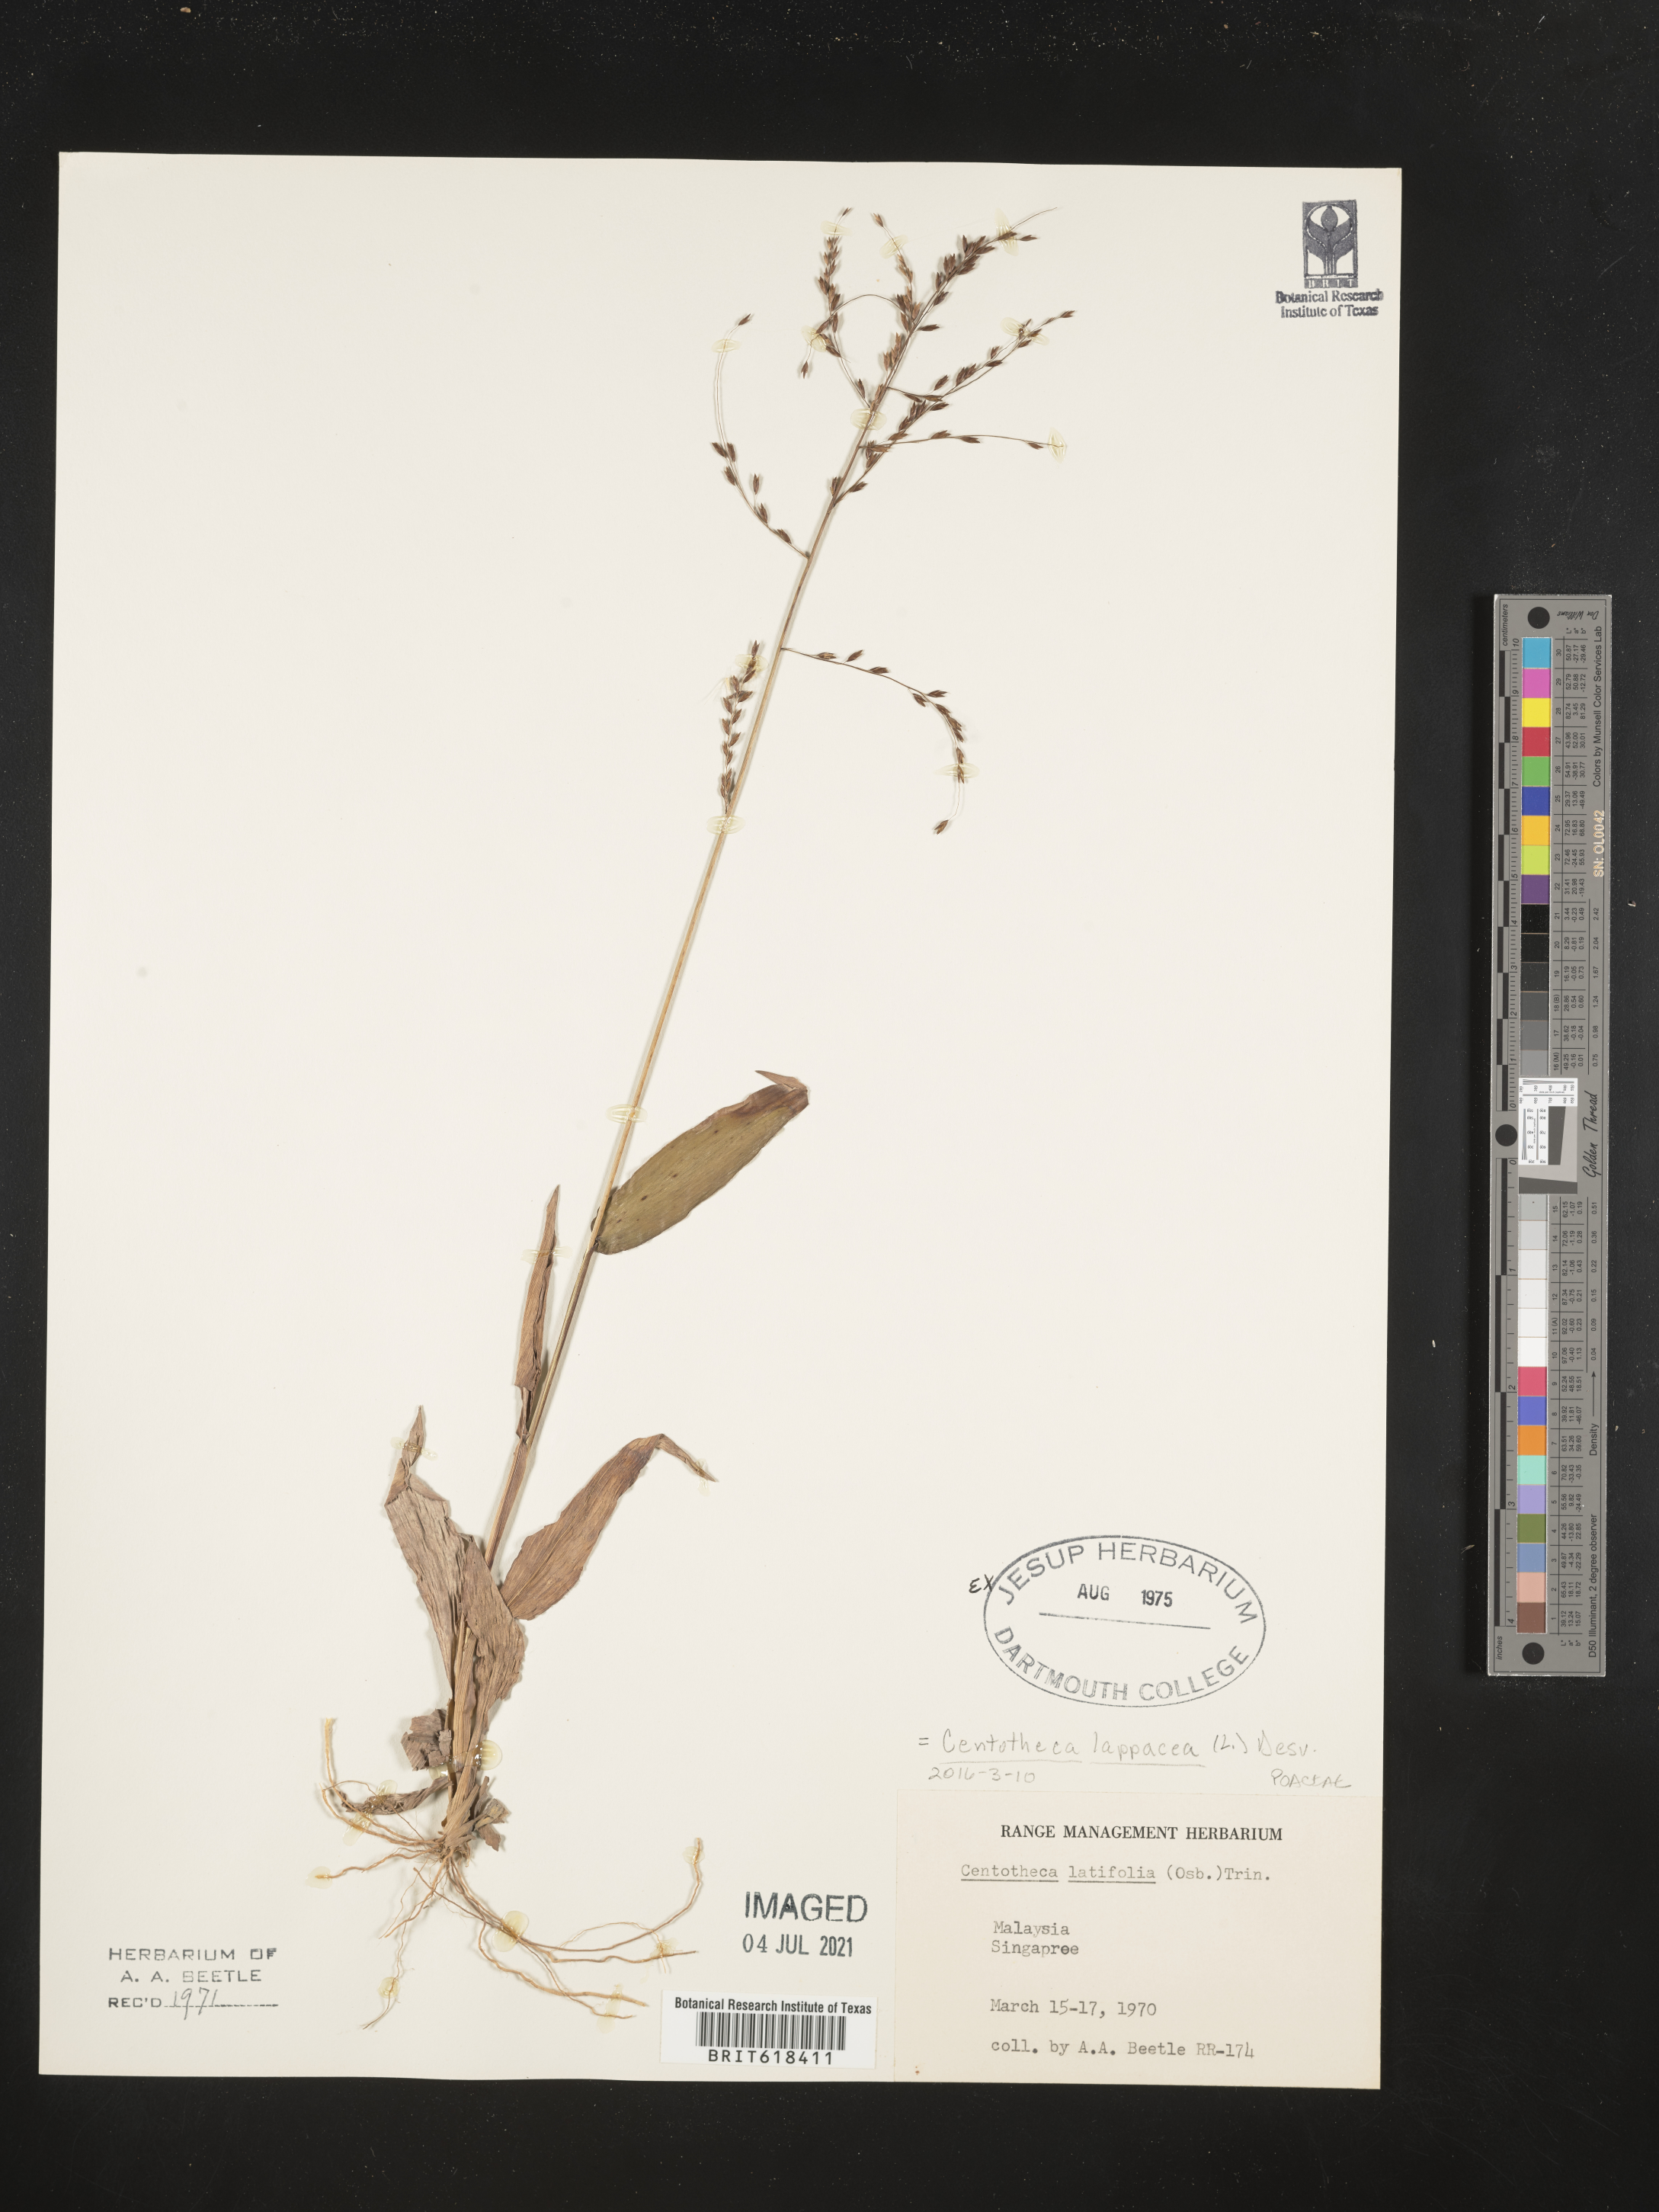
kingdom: Plantae
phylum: Tracheophyta
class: Liliopsida
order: Poales
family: Poaceae
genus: Centotheca
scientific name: Centotheca lappacea
